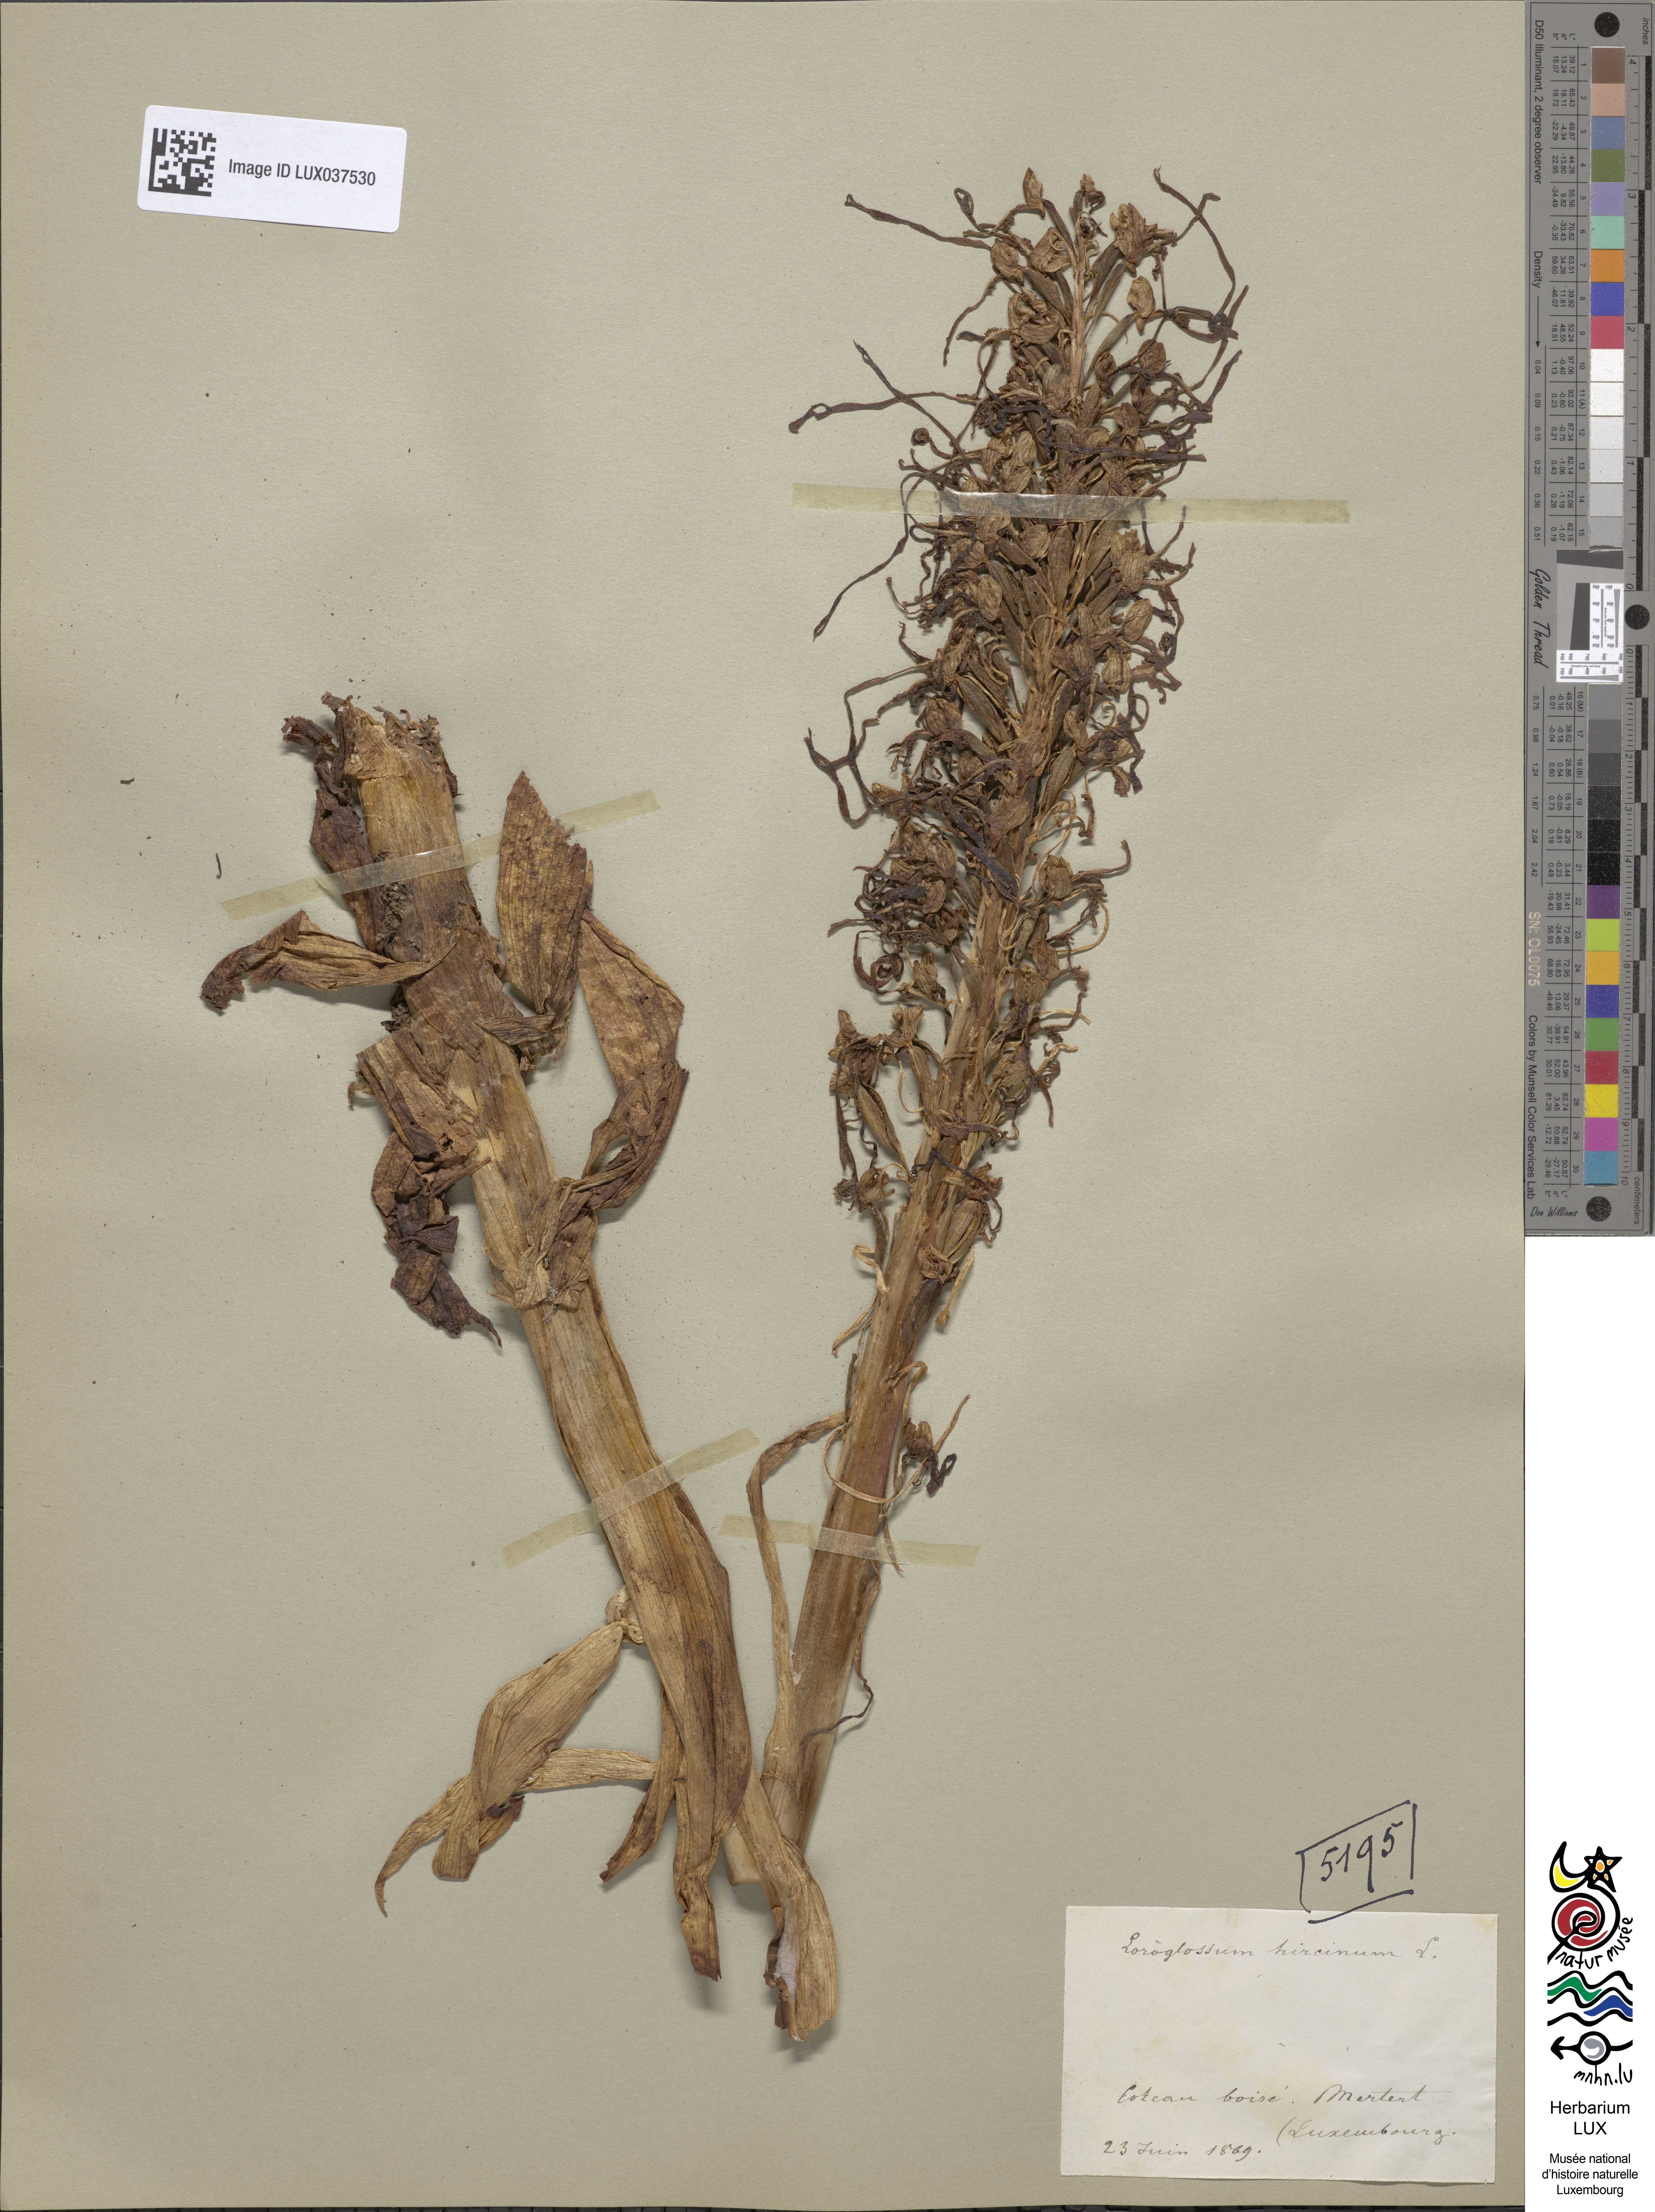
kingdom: Plantae
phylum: Tracheophyta
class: Liliopsida
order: Asparagales
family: Orchidaceae
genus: Himantoglossum
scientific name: Himantoglossum hircinum
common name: Lizard orchid
